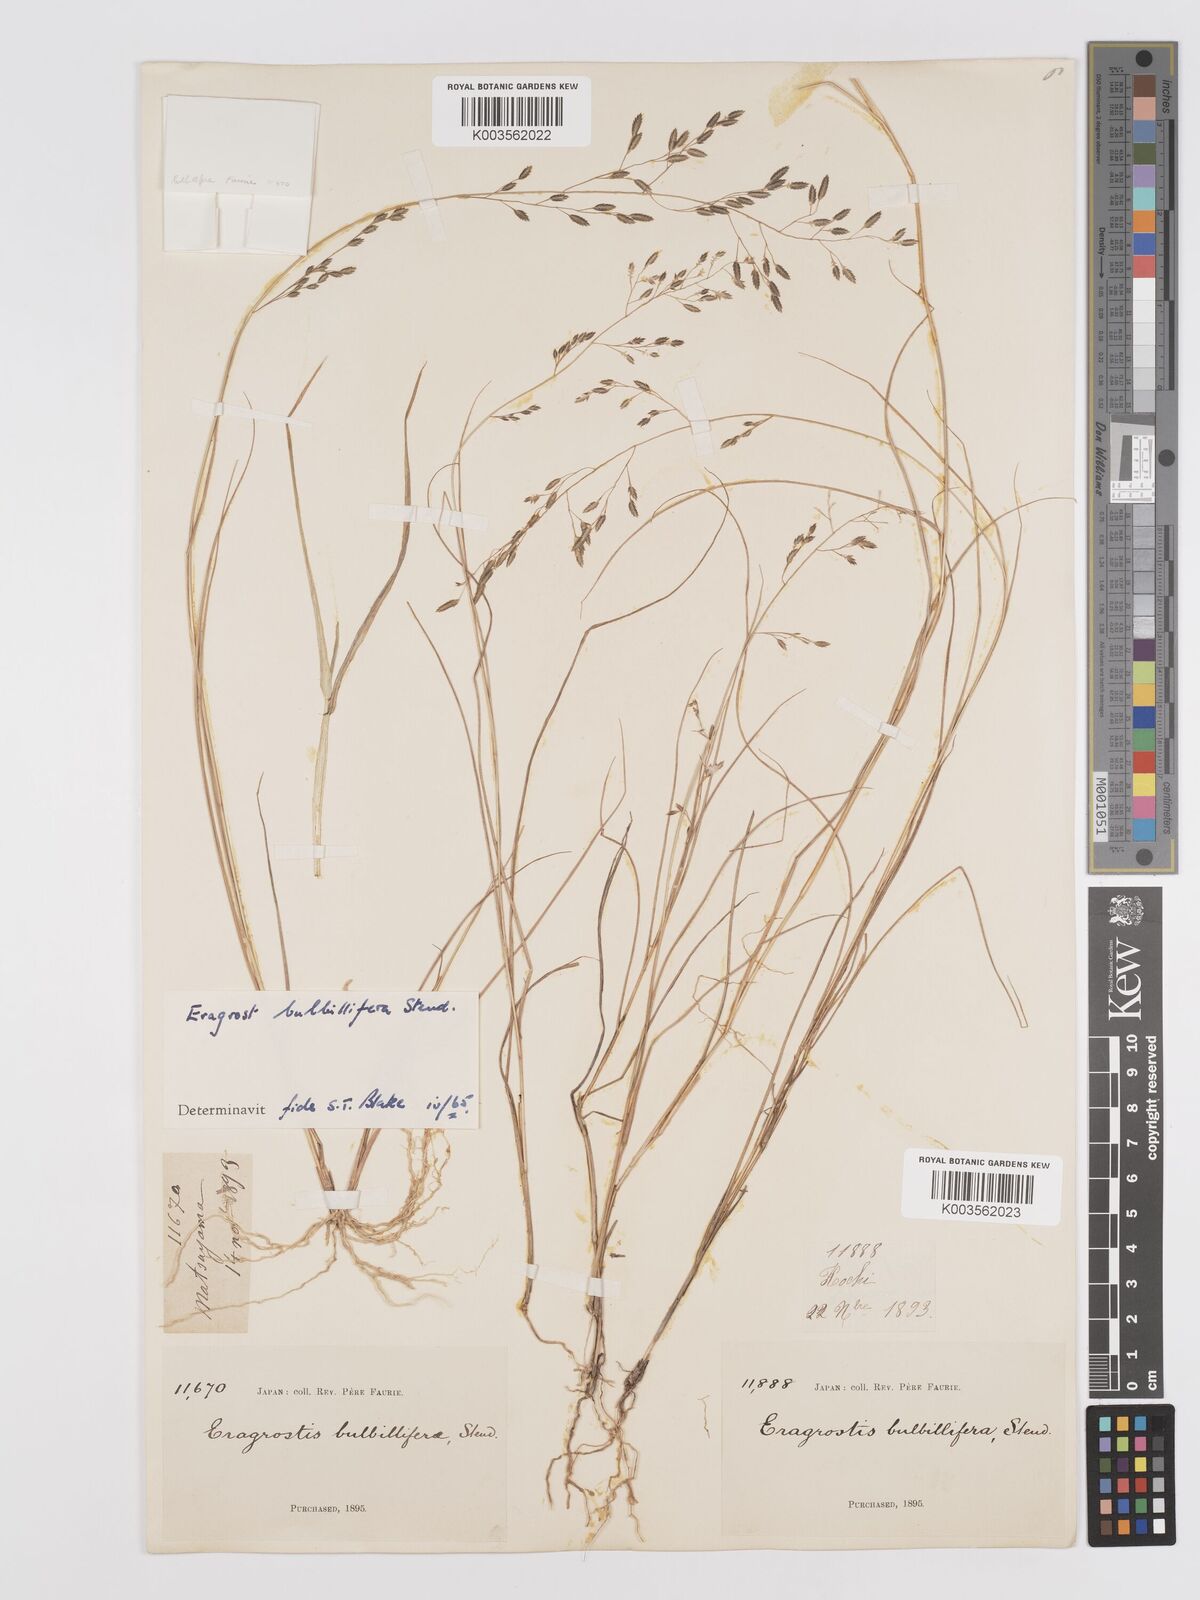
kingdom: Plantae
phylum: Tracheophyta
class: Liliopsida
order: Poales
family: Poaceae
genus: Eragrostis
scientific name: Eragrostis cumingii
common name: Cuming's lovegrass
